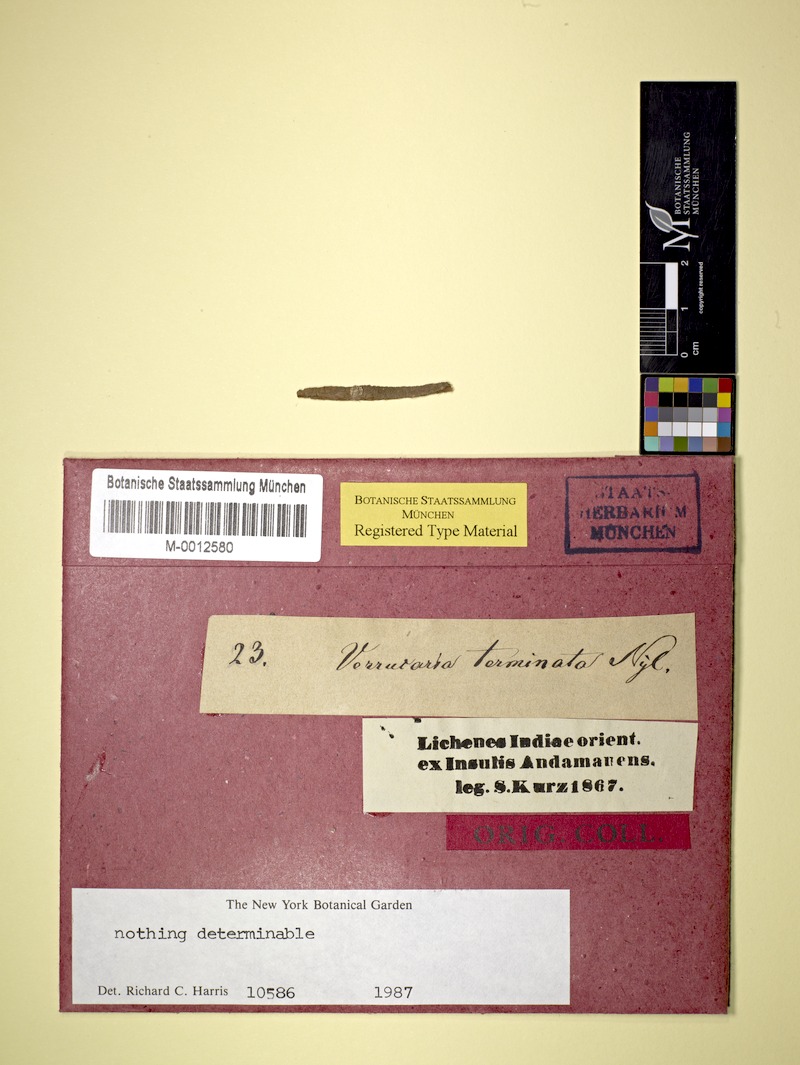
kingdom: Fungi
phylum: Ascomycota
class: Dothideomycetes
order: Monoblastiales
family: Monoblastiaceae
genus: Anisomeridium
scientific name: Anisomeridium terminatum
